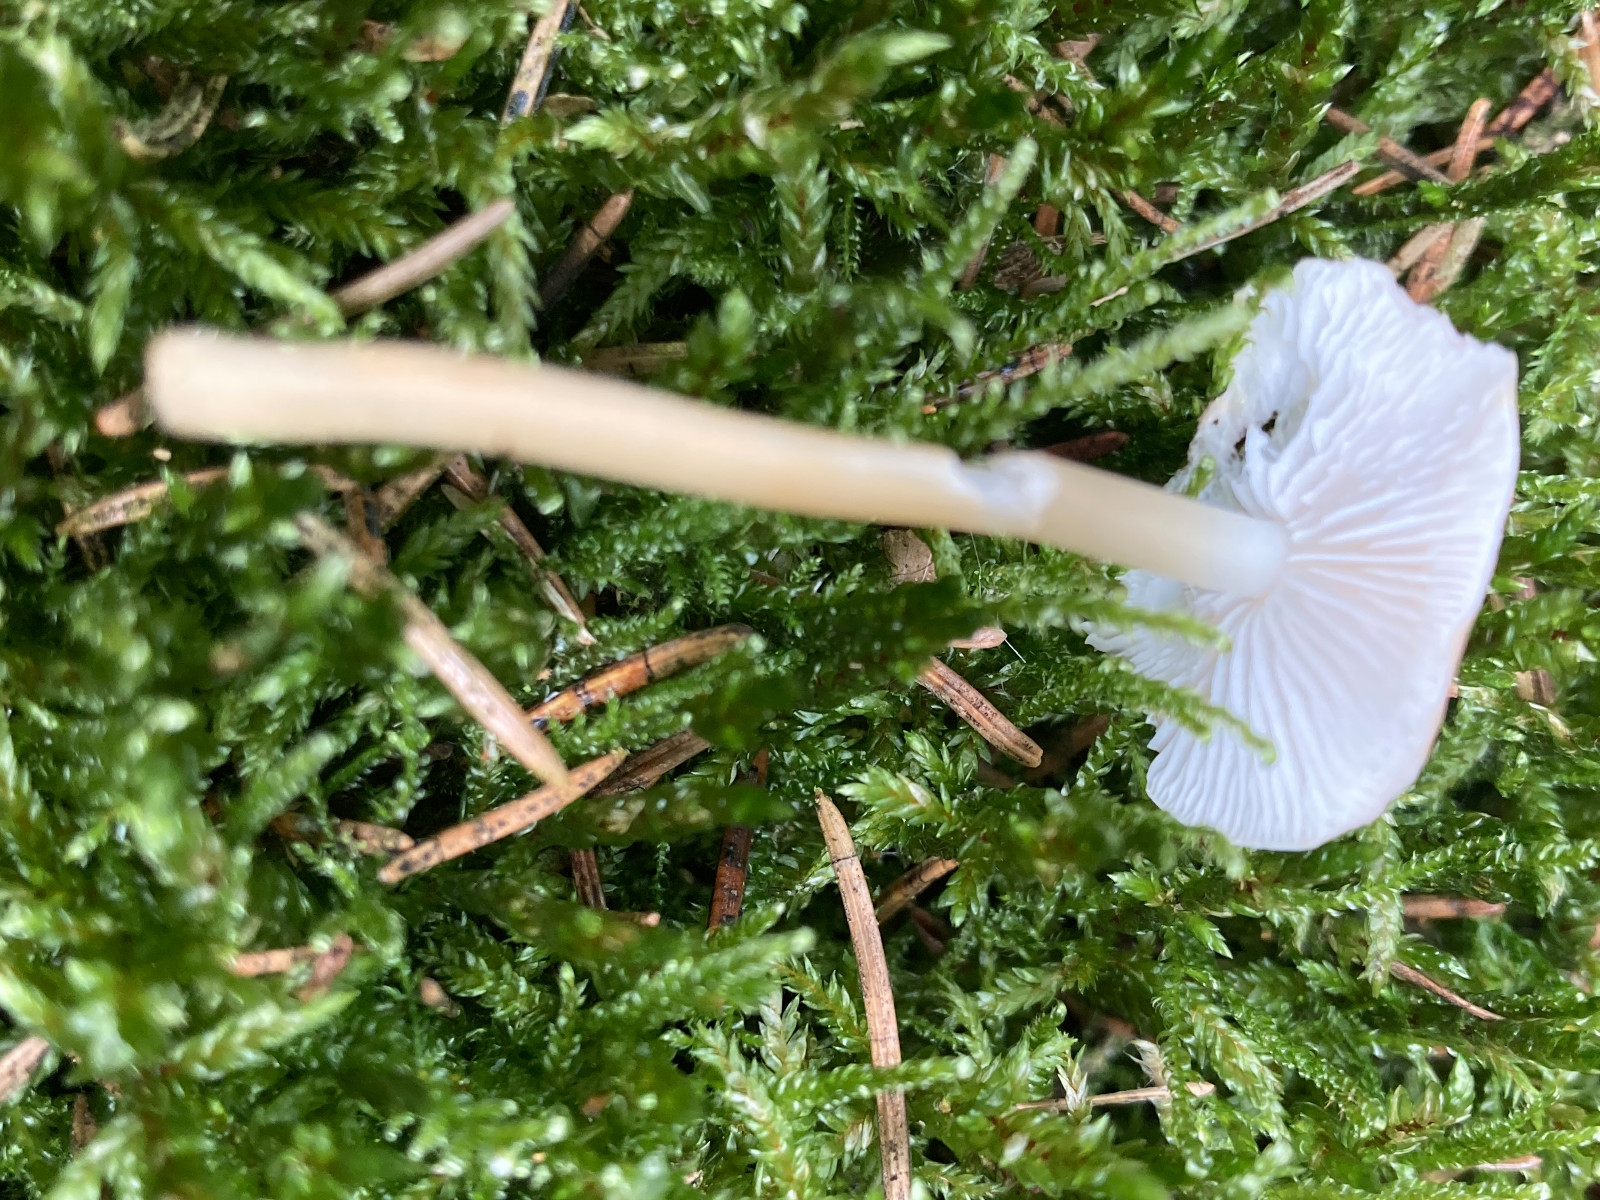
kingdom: Fungi
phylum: Basidiomycota
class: Agaricomycetes
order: Agaricales
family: Physalacriaceae
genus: Strobilurus
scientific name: Strobilurus esculentus
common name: gran-koglehat
